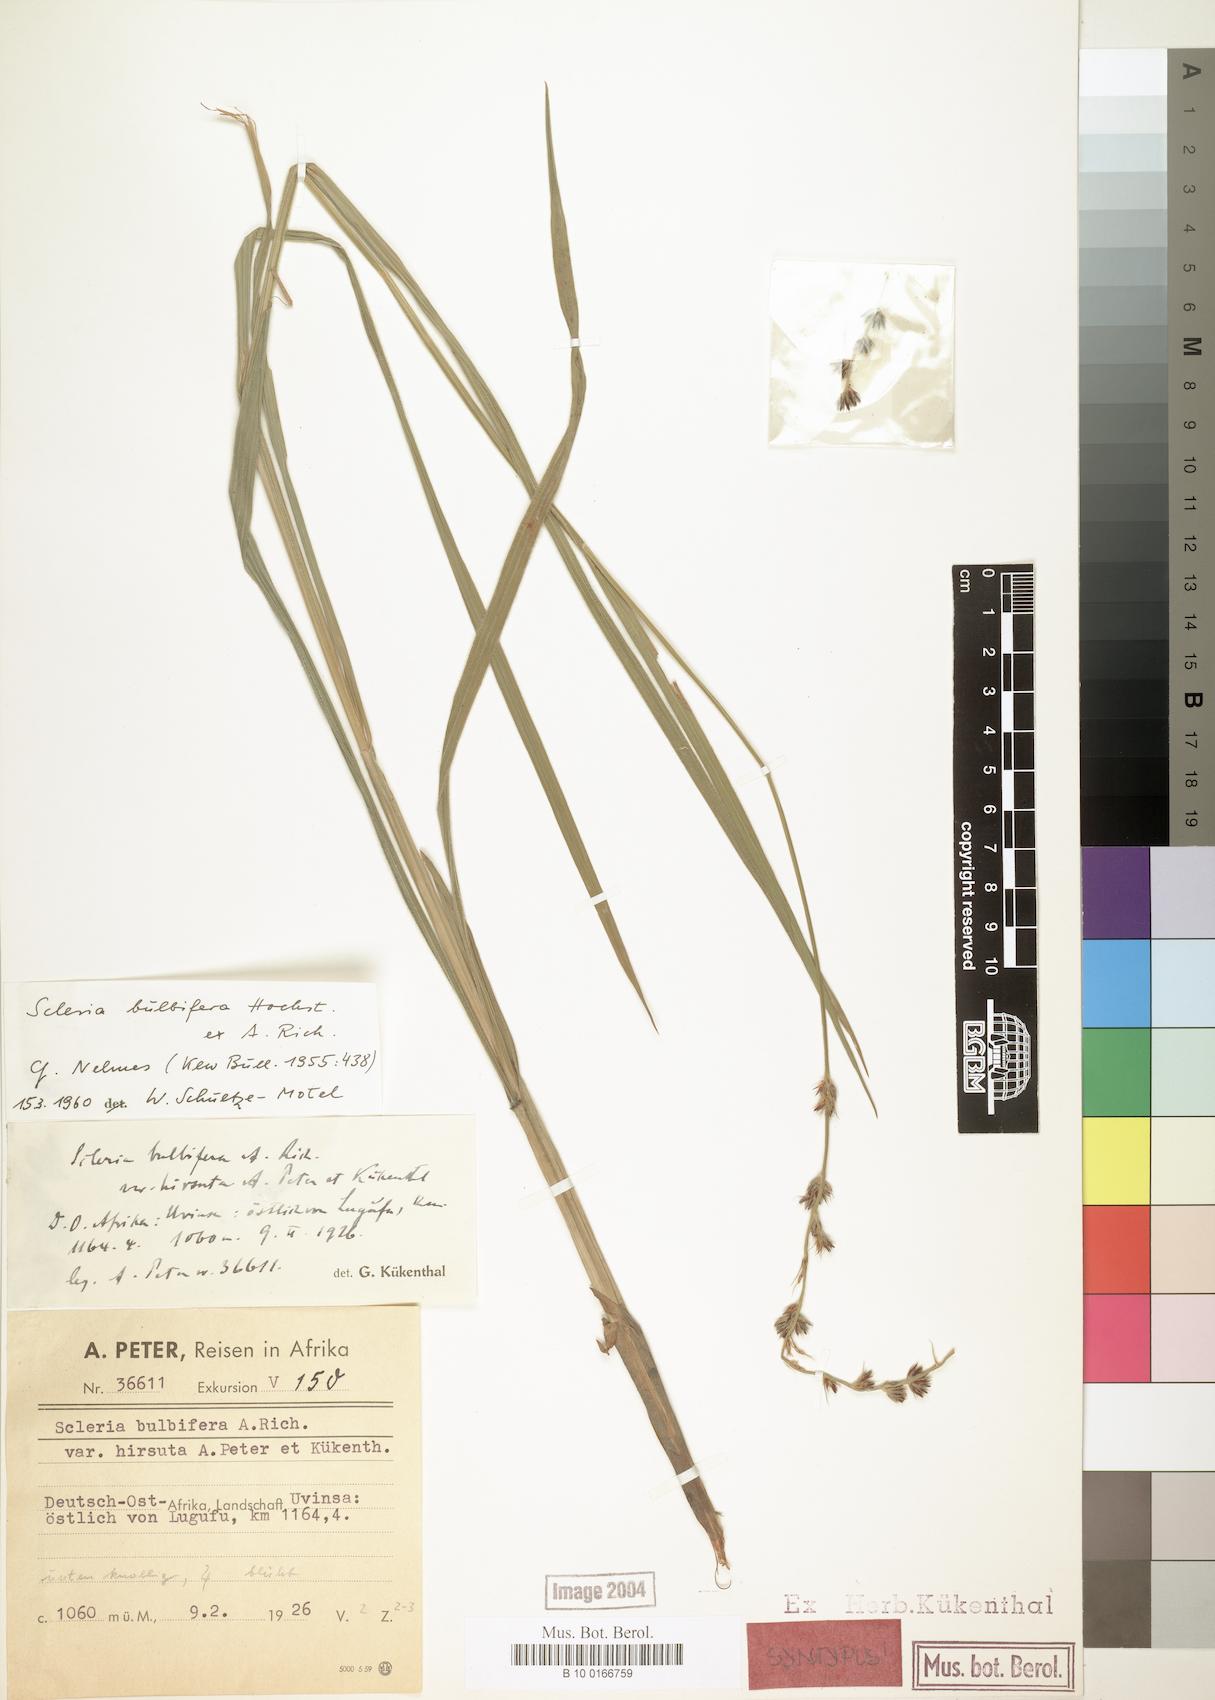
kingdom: Plantae
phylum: Tracheophyta
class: Liliopsida
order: Poales
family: Cyperaceae
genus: Scleria
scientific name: Scleria bulbifera
